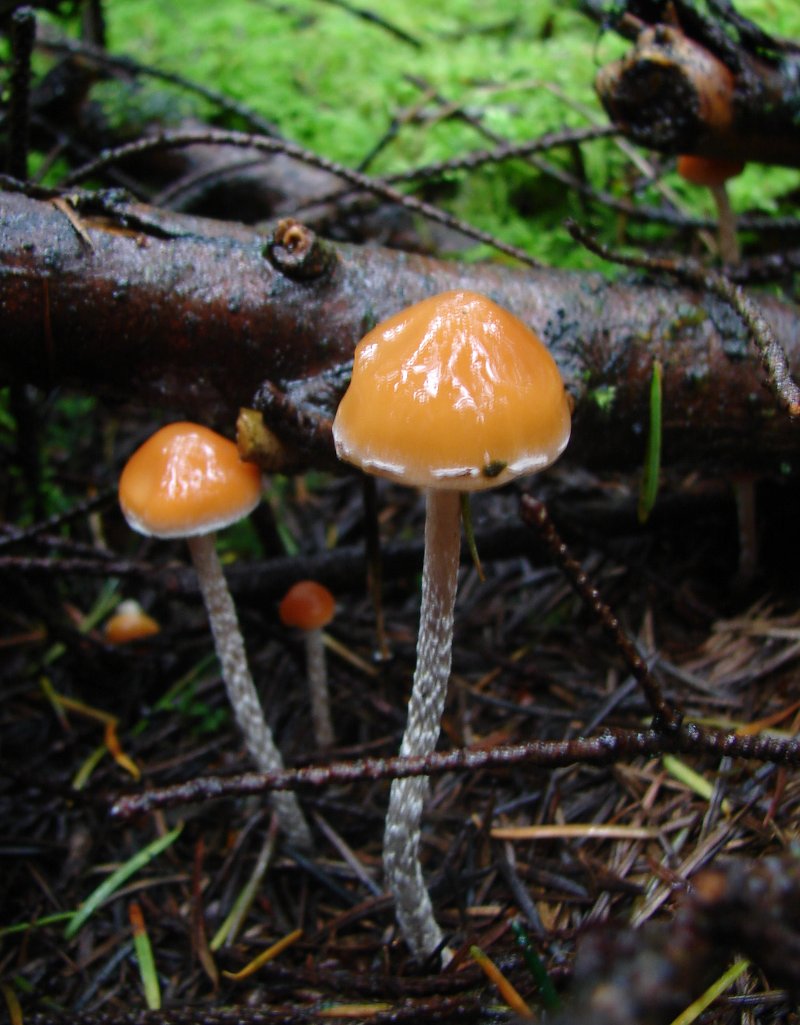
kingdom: Fungi
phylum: Basidiomycota
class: Agaricomycetes
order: Agaricales
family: Strophariaceae
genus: Hypholoma
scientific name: Hypholoma marginatum
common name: enlig svovlhat
